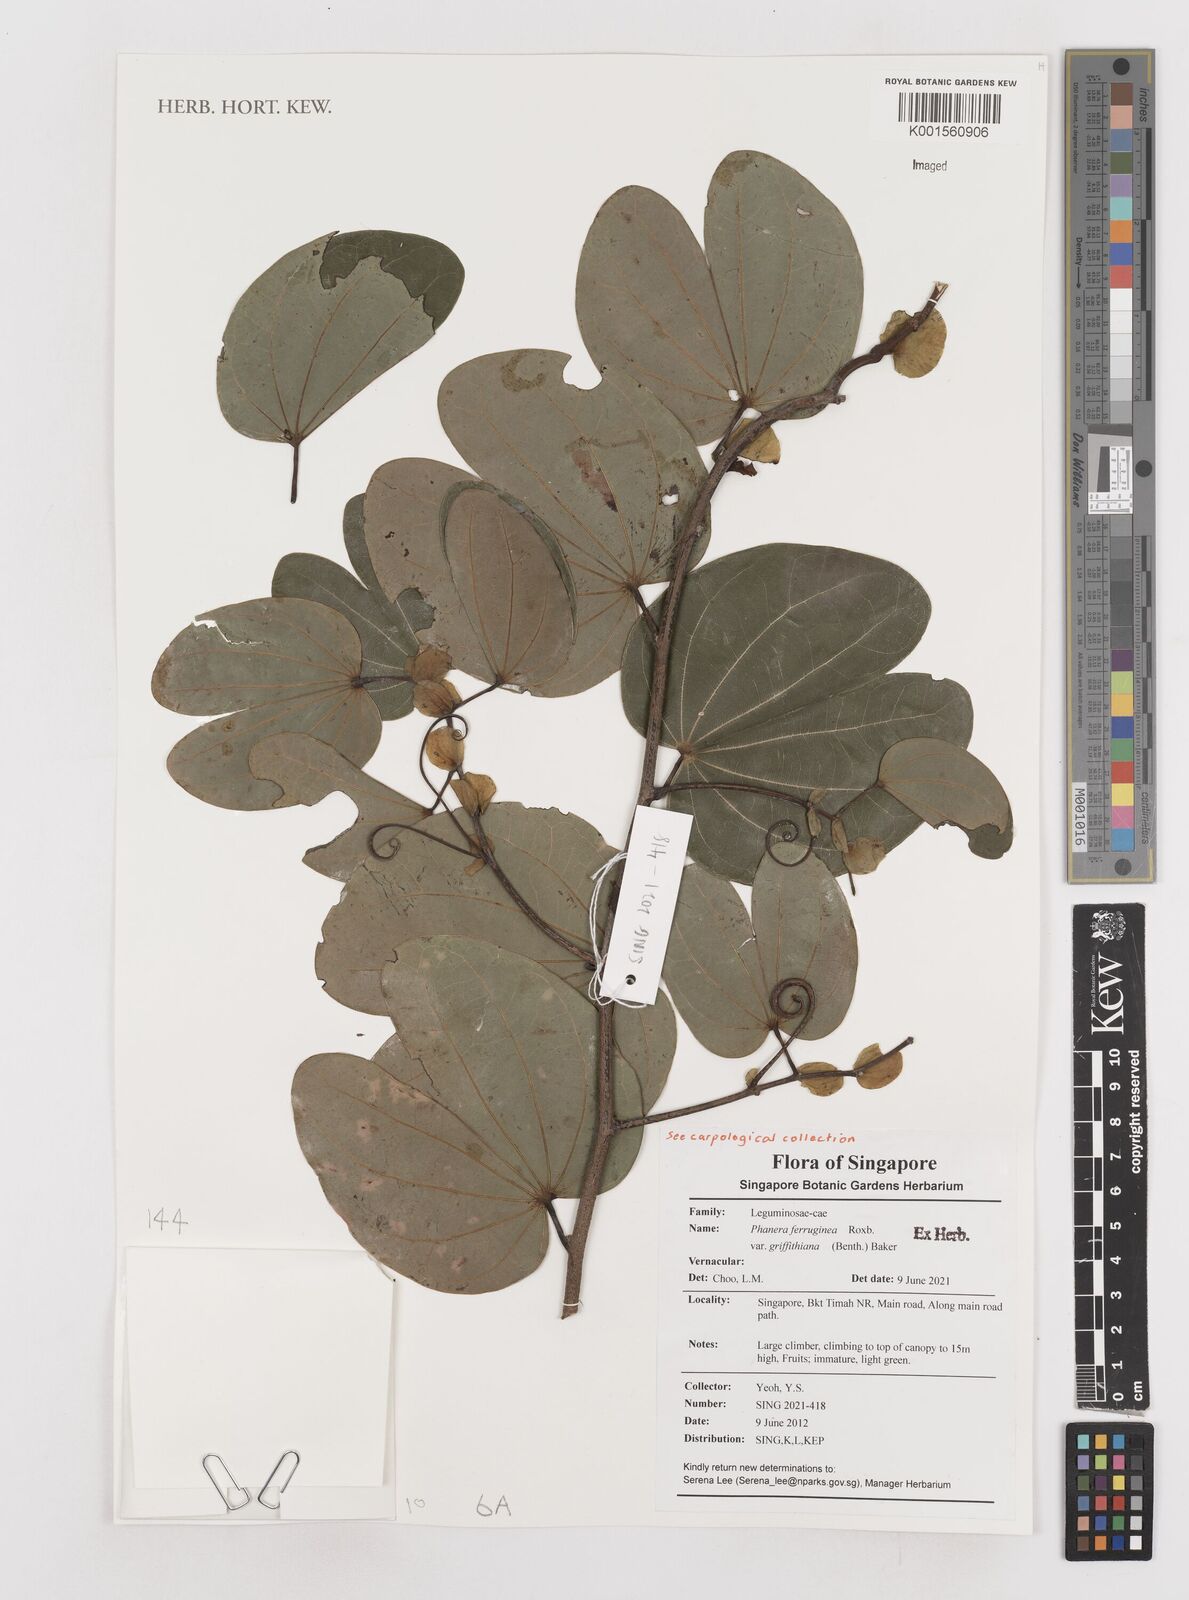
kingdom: Plantae
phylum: Tracheophyta
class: Magnoliopsida
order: Fabales
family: Fabaceae
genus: Phanera
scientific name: Phanera ferruginea
